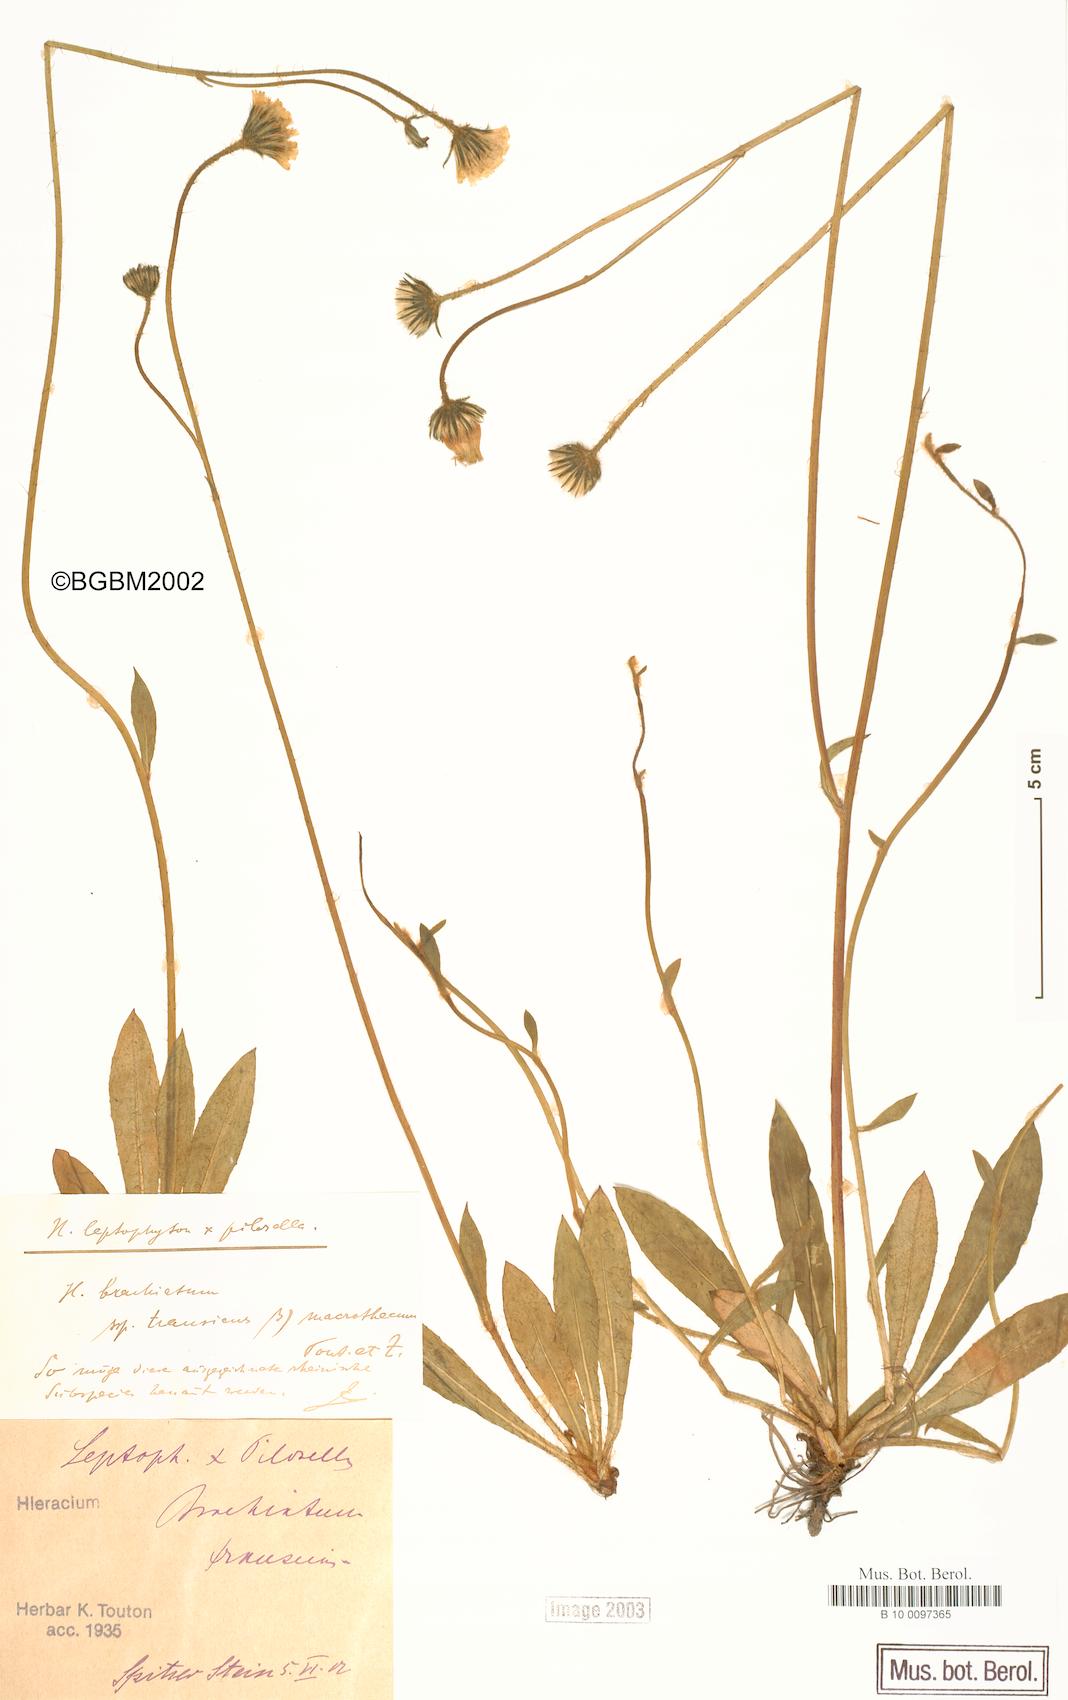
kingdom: Plantae
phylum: Tracheophyta
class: Magnoliopsida
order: Asterales
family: Asteraceae
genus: Pilosella
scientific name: Pilosella acutifolia
